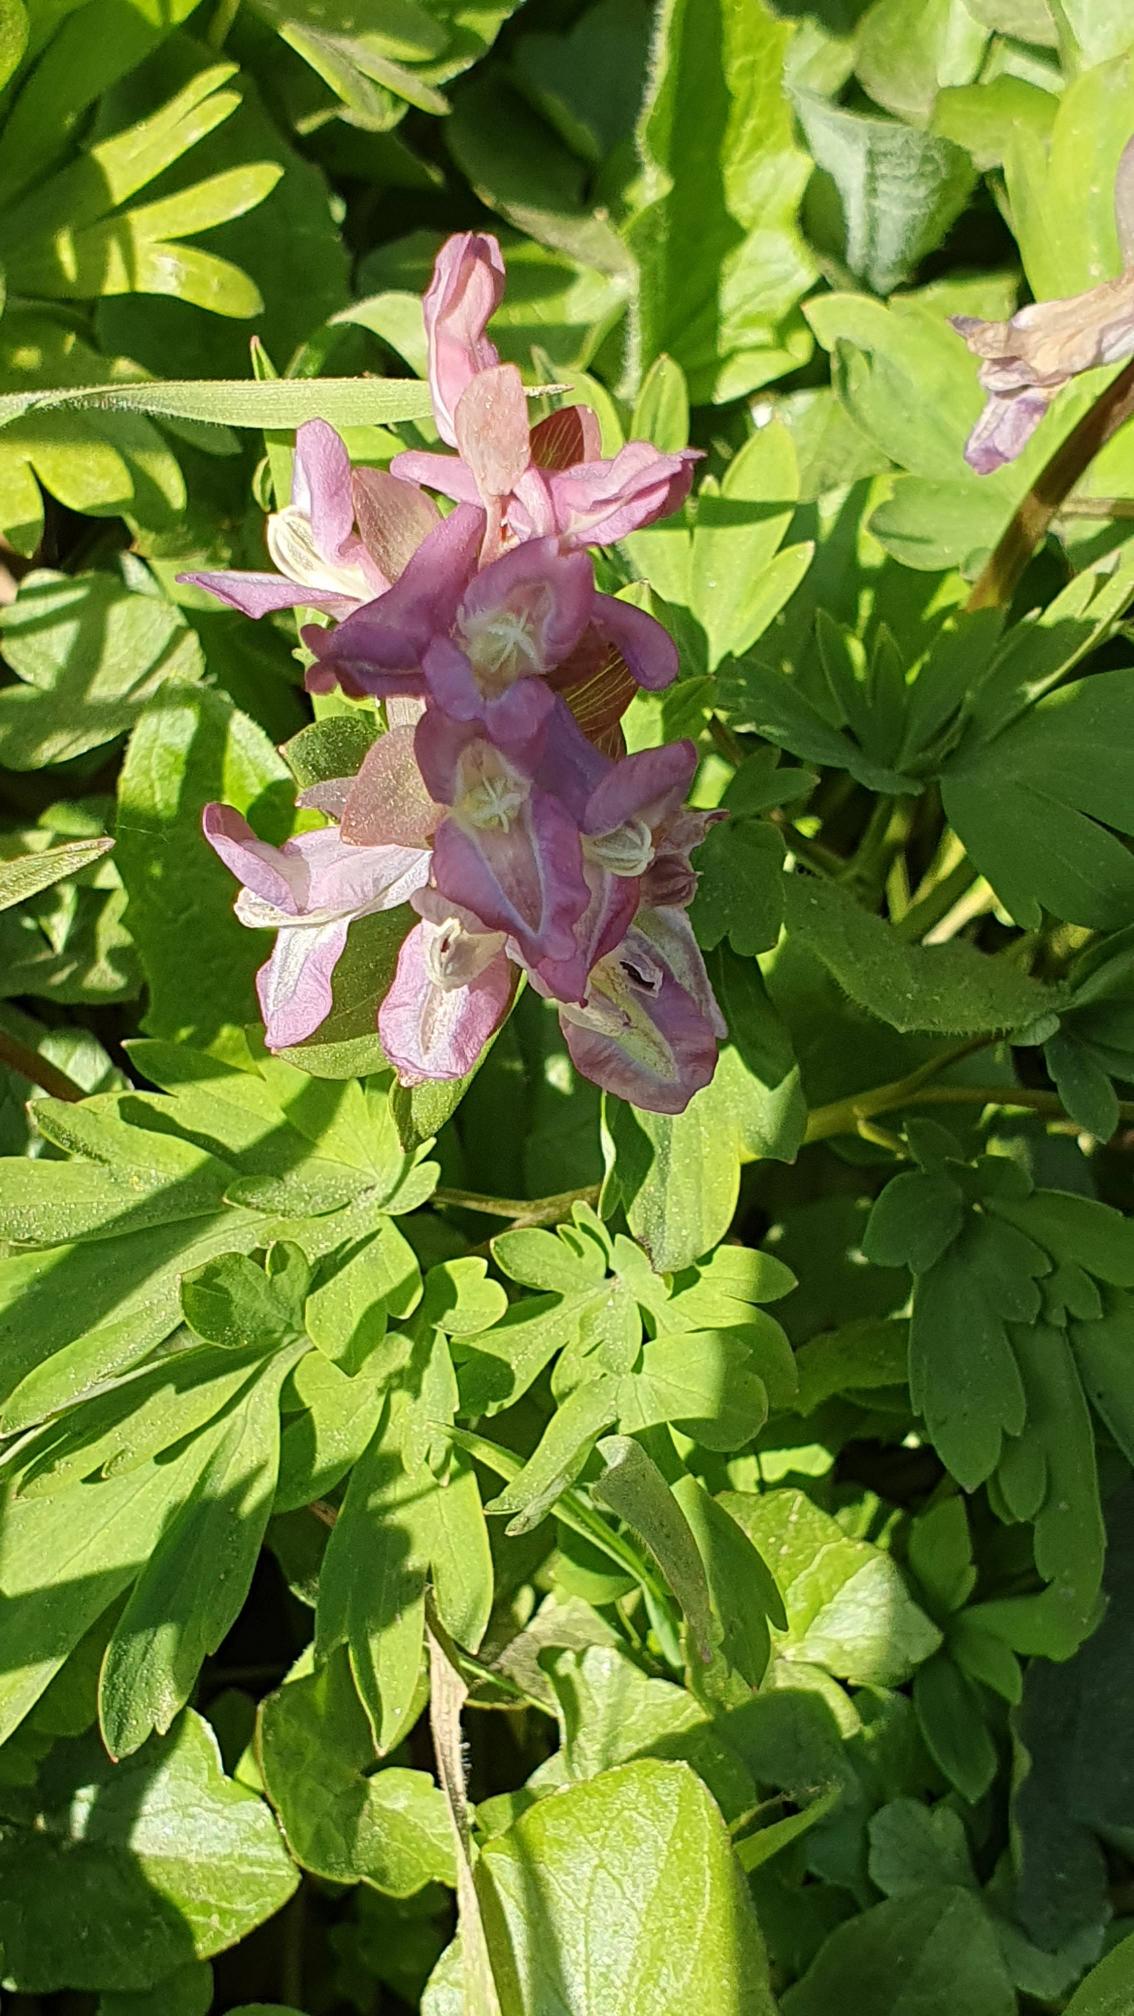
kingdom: Plantae
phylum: Tracheophyta
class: Magnoliopsida
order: Ranunculales
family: Papaveraceae
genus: Corydalis
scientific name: Corydalis cava
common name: Hulrodet lærkespore
